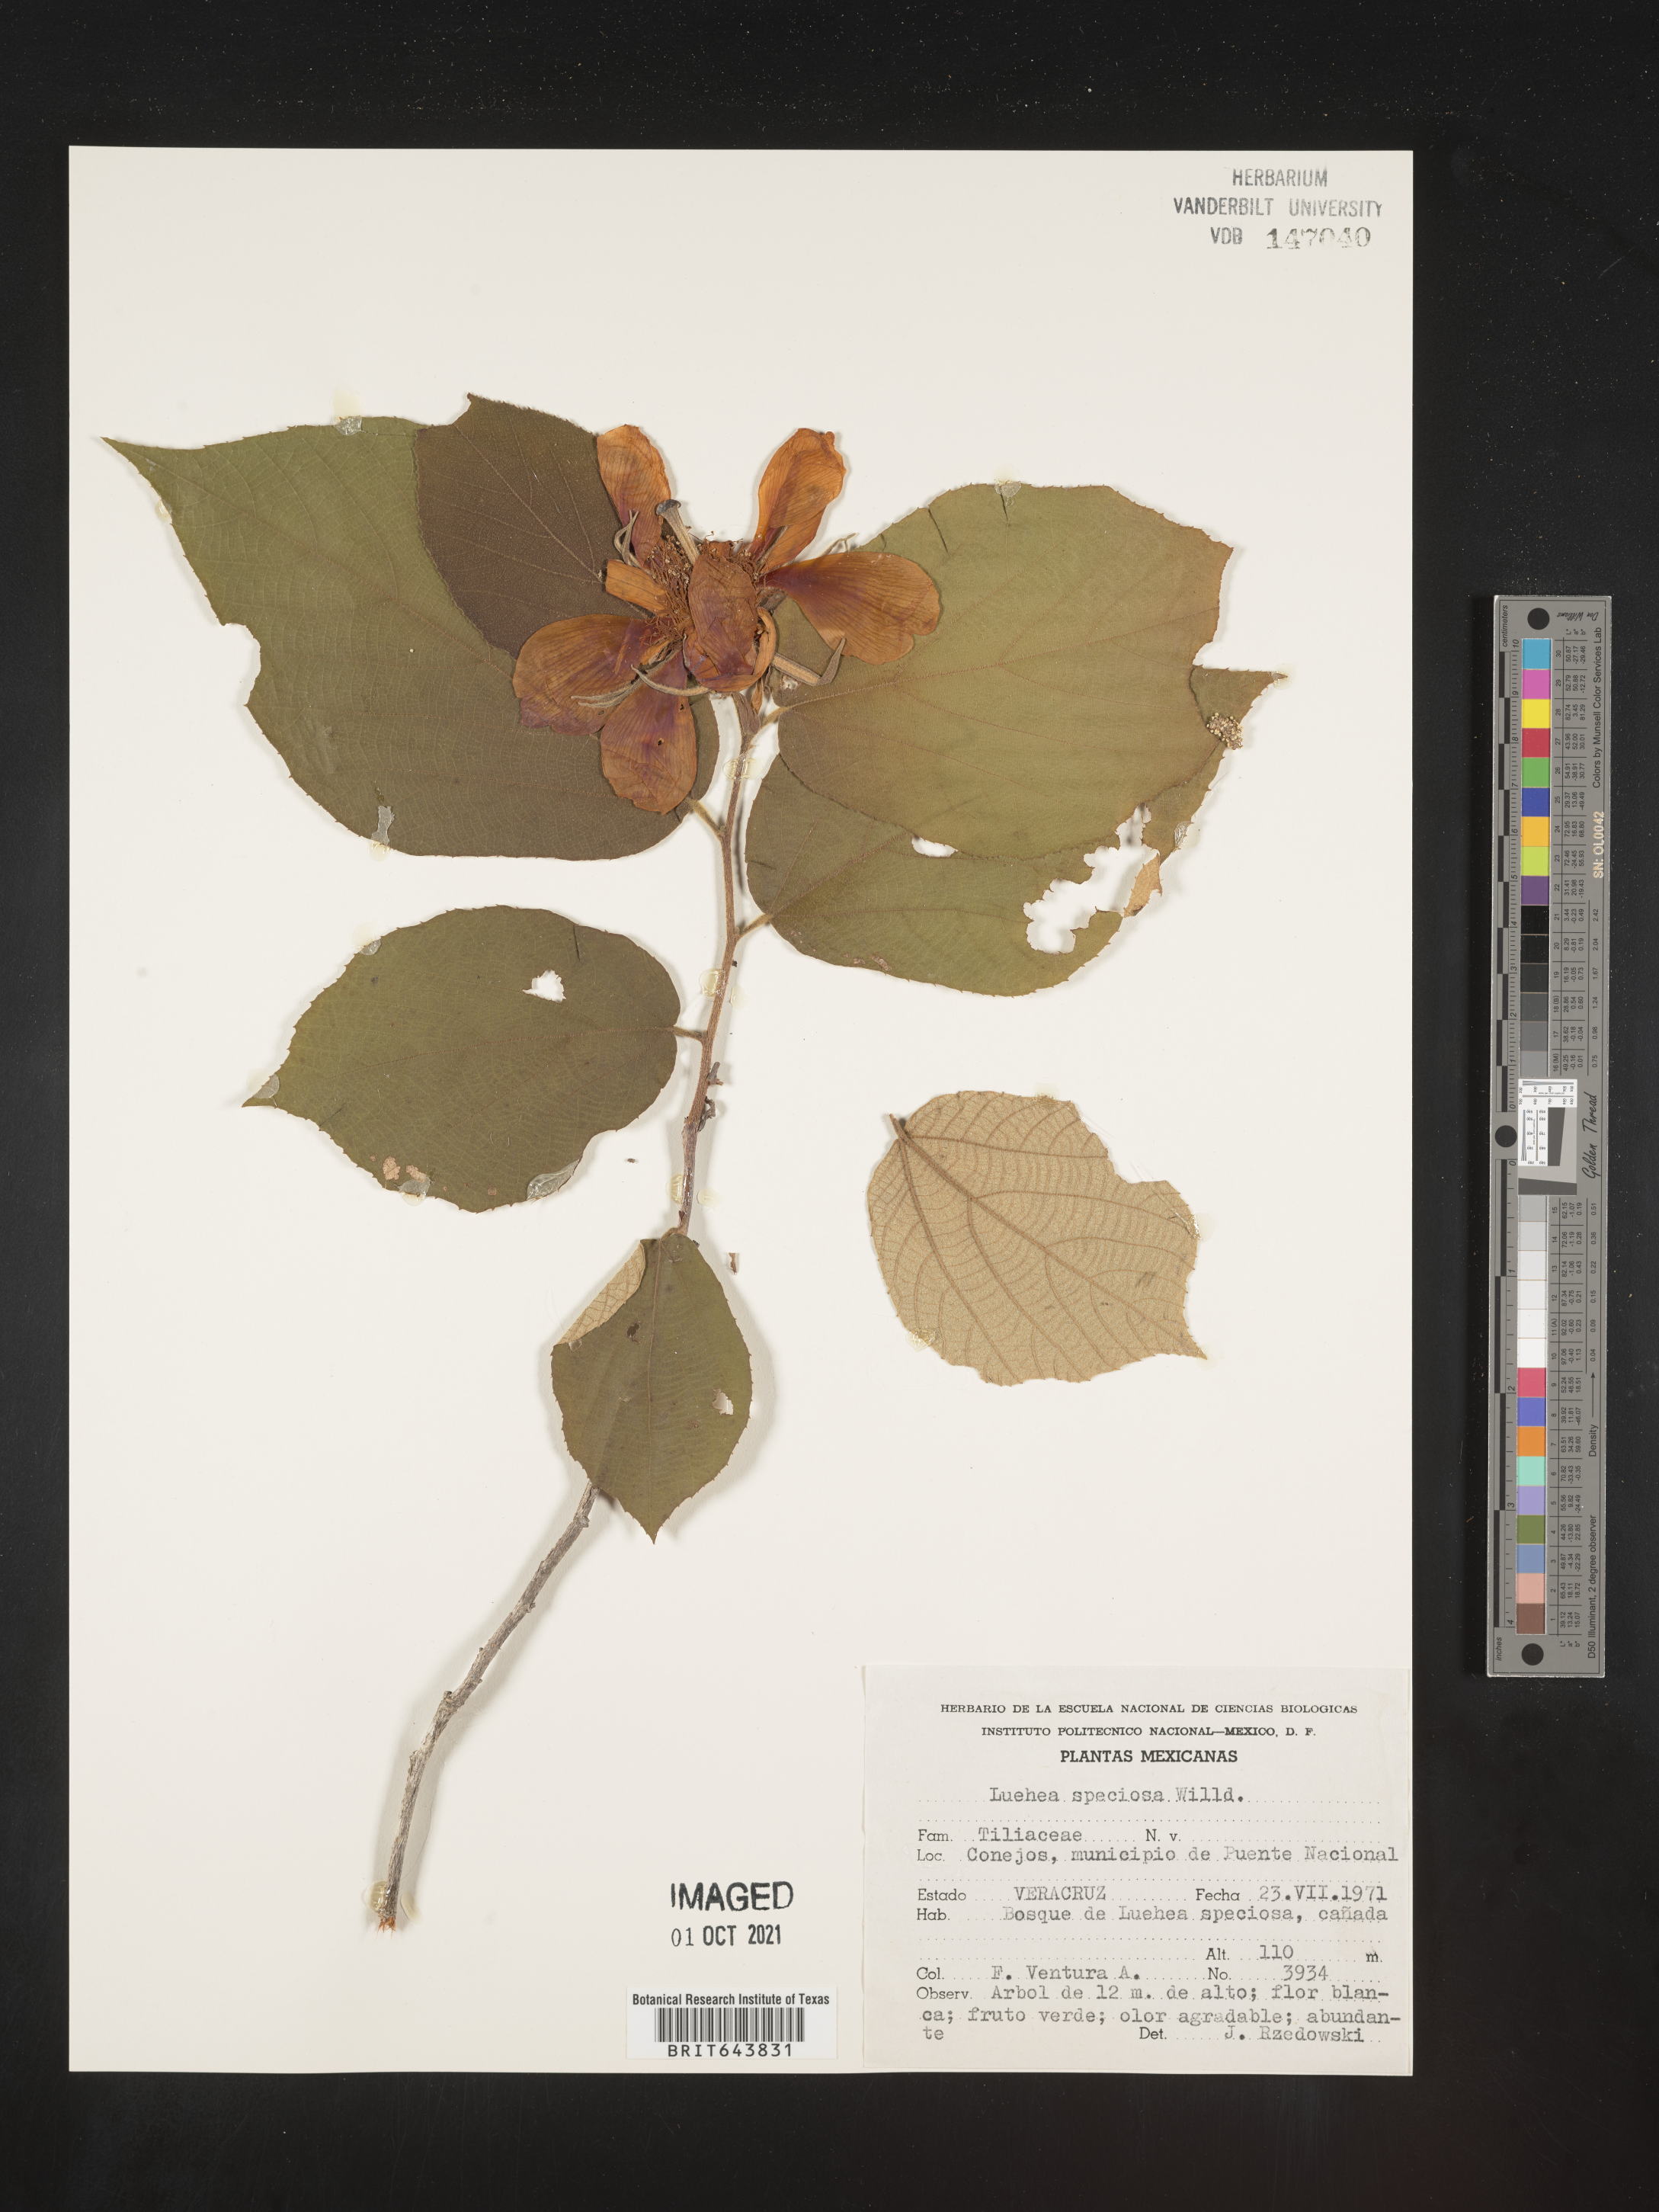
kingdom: Plantae
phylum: Tracheophyta
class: Magnoliopsida
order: Malvales
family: Malvaceae
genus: Luehea
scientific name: Luehea
